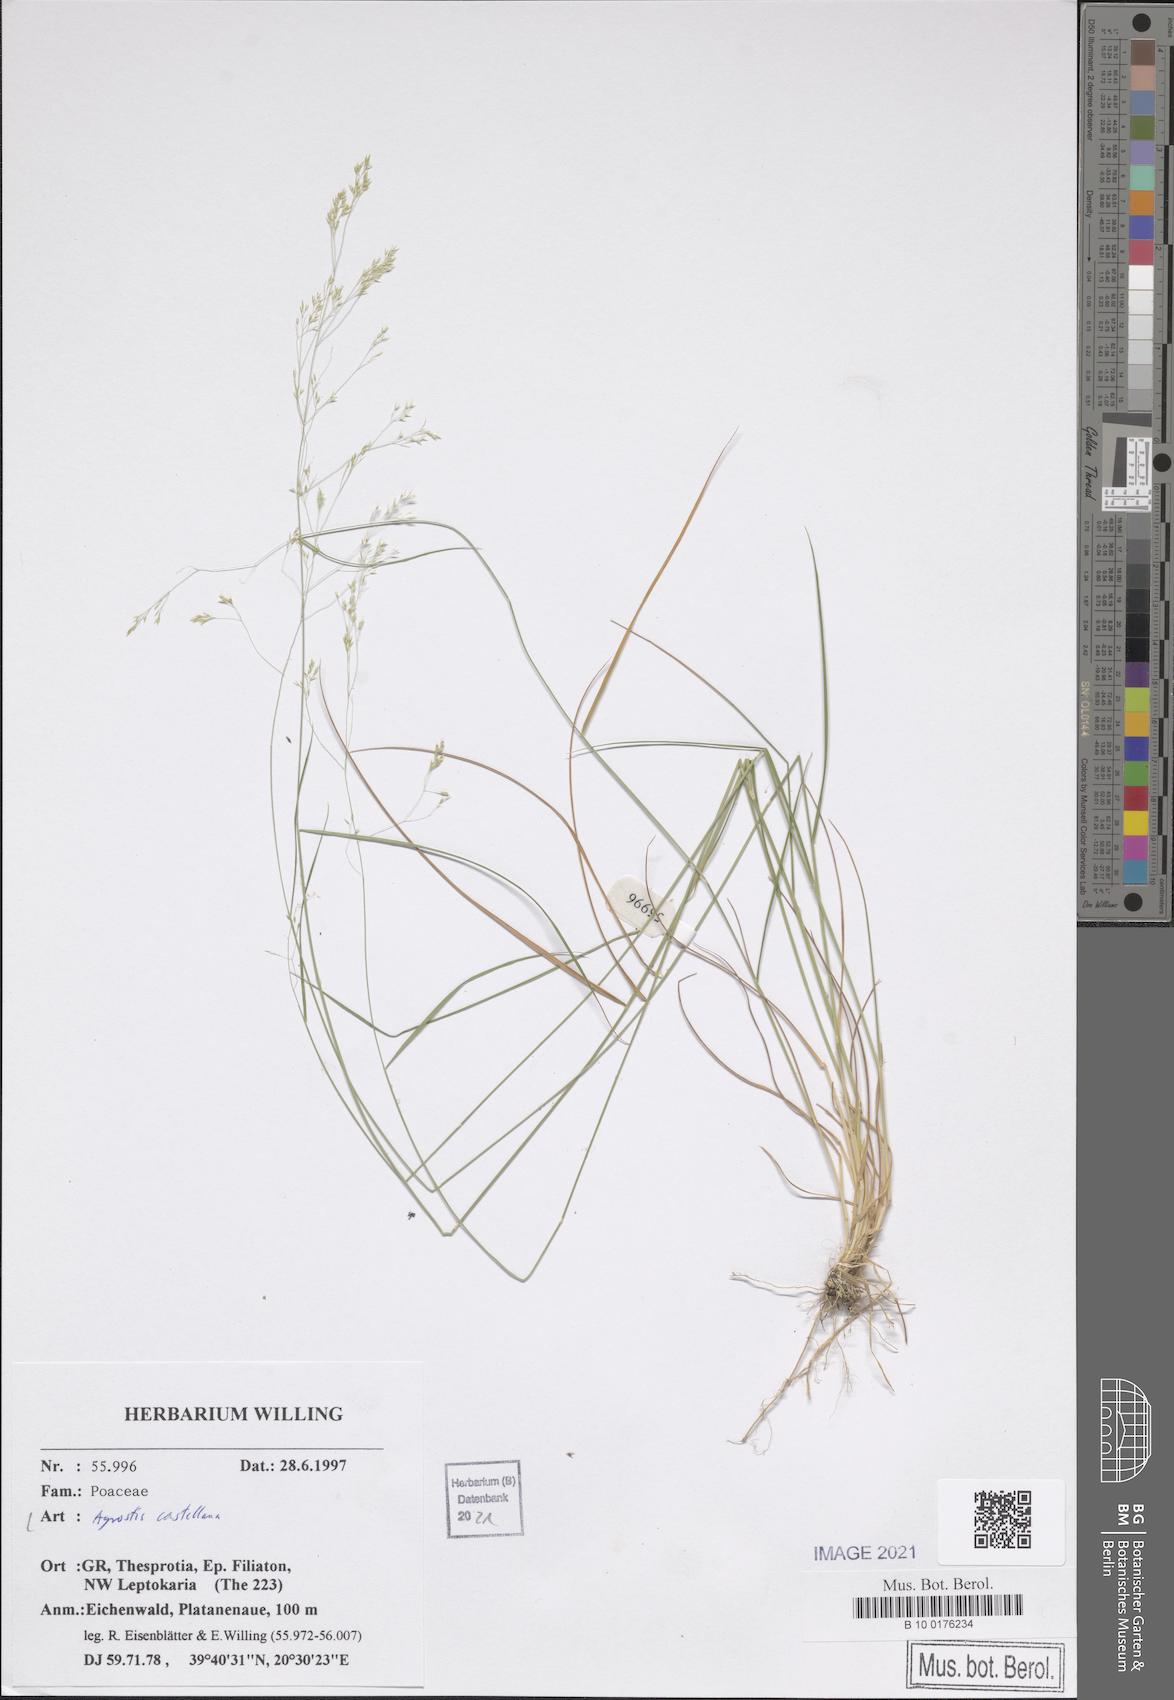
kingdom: Plantae
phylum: Tracheophyta
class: Liliopsida
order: Poales
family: Poaceae
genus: Agrostis
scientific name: Agrostis castellana
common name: Highland bent
